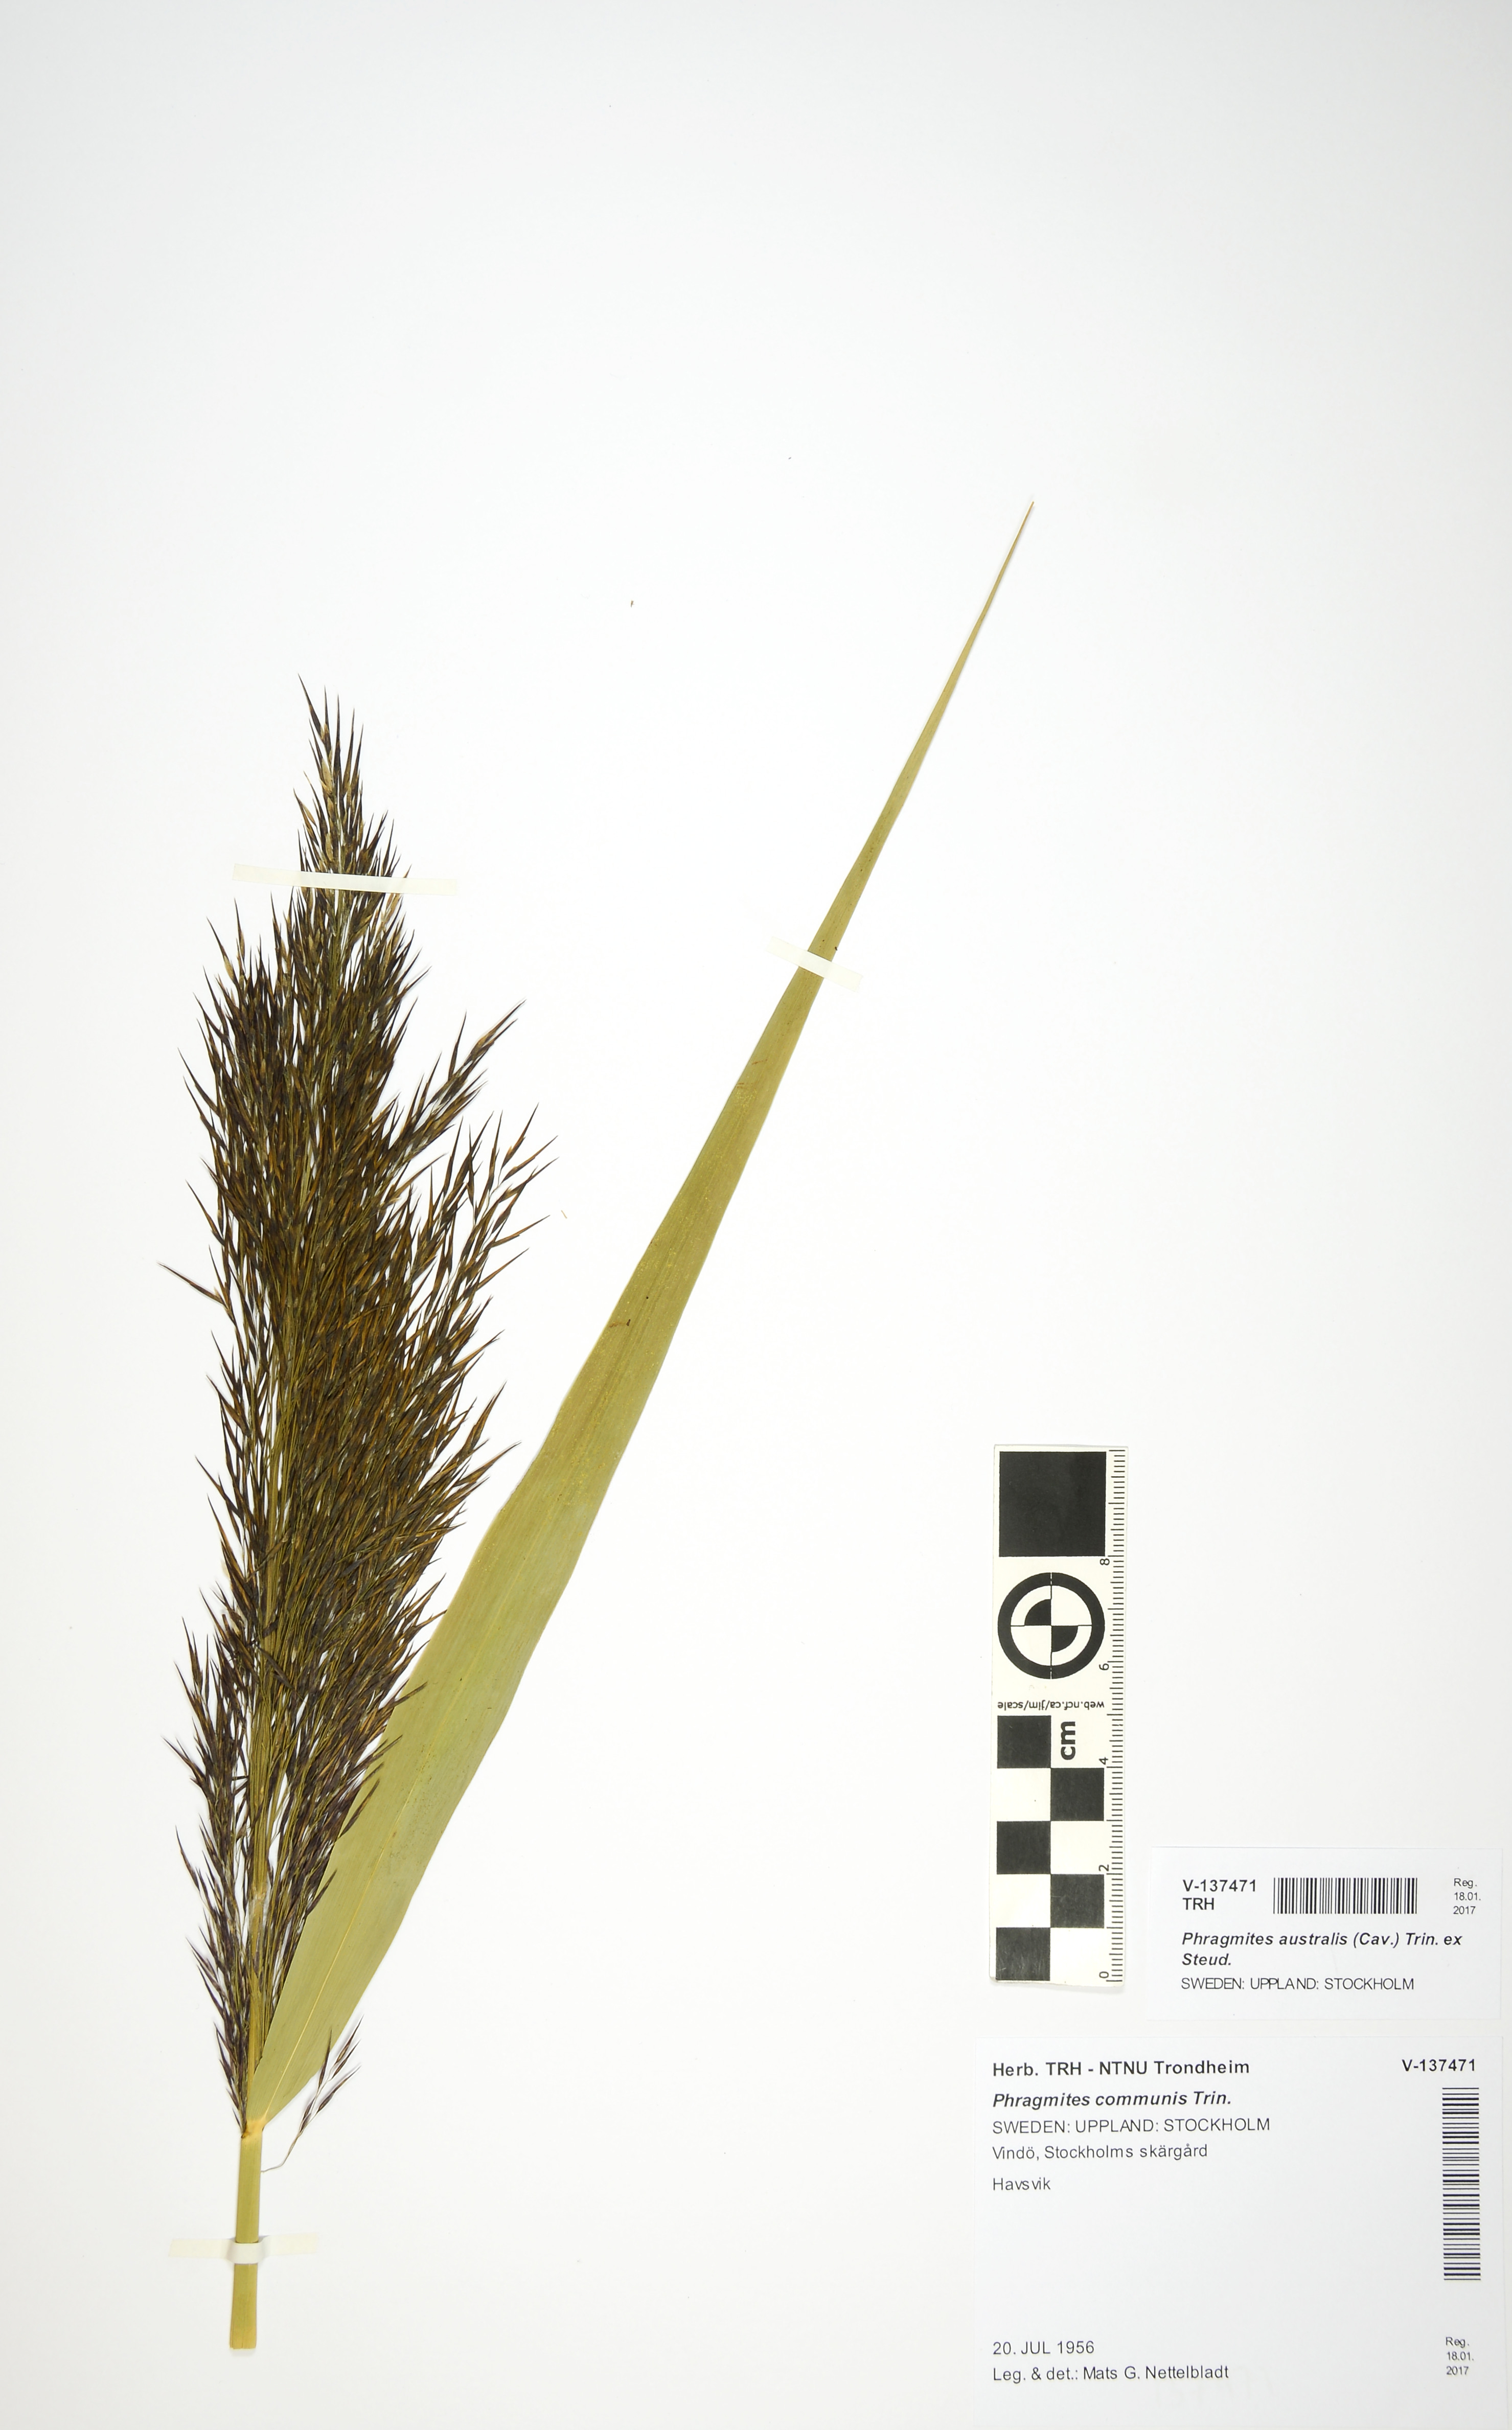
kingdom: Plantae
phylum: Tracheophyta
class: Liliopsida
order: Poales
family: Poaceae
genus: Phragmites
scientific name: Phragmites australis
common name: Common reed
